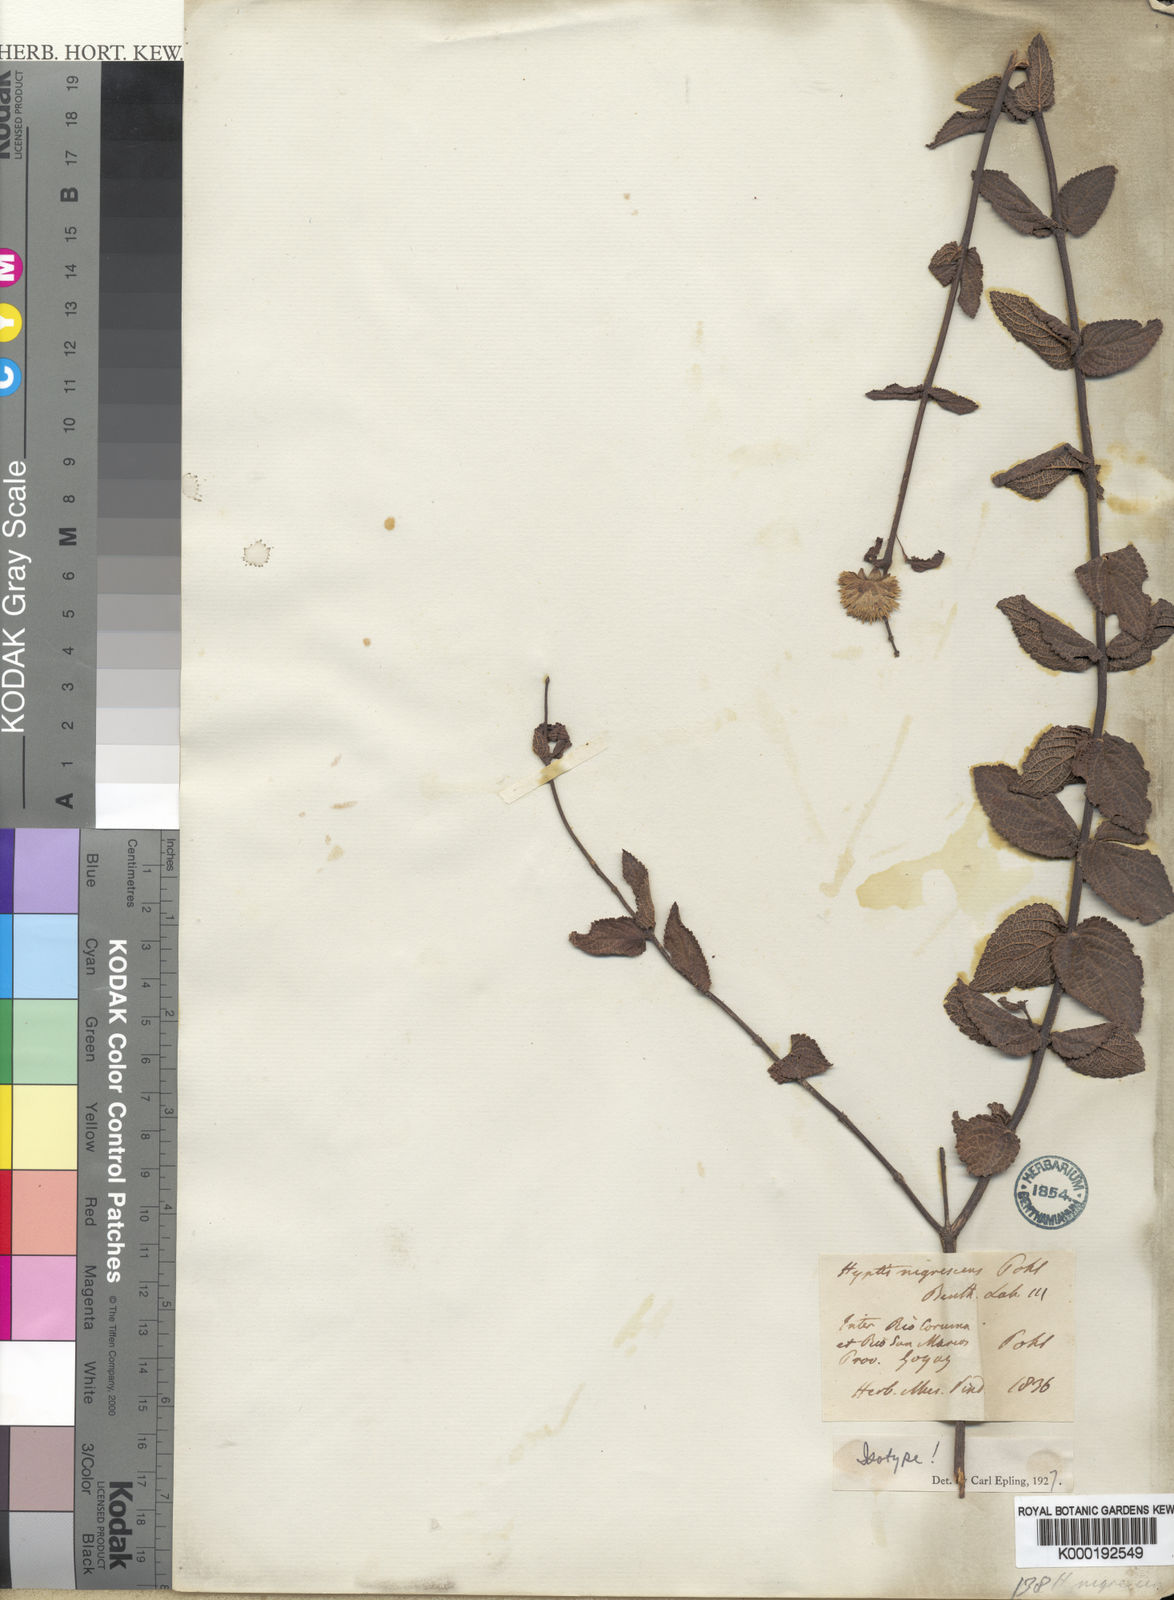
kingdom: Plantae
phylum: Tracheophyta
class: Magnoliopsida
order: Lamiales
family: Lamiaceae
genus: Hyptis
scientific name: Hyptis nigrescens
